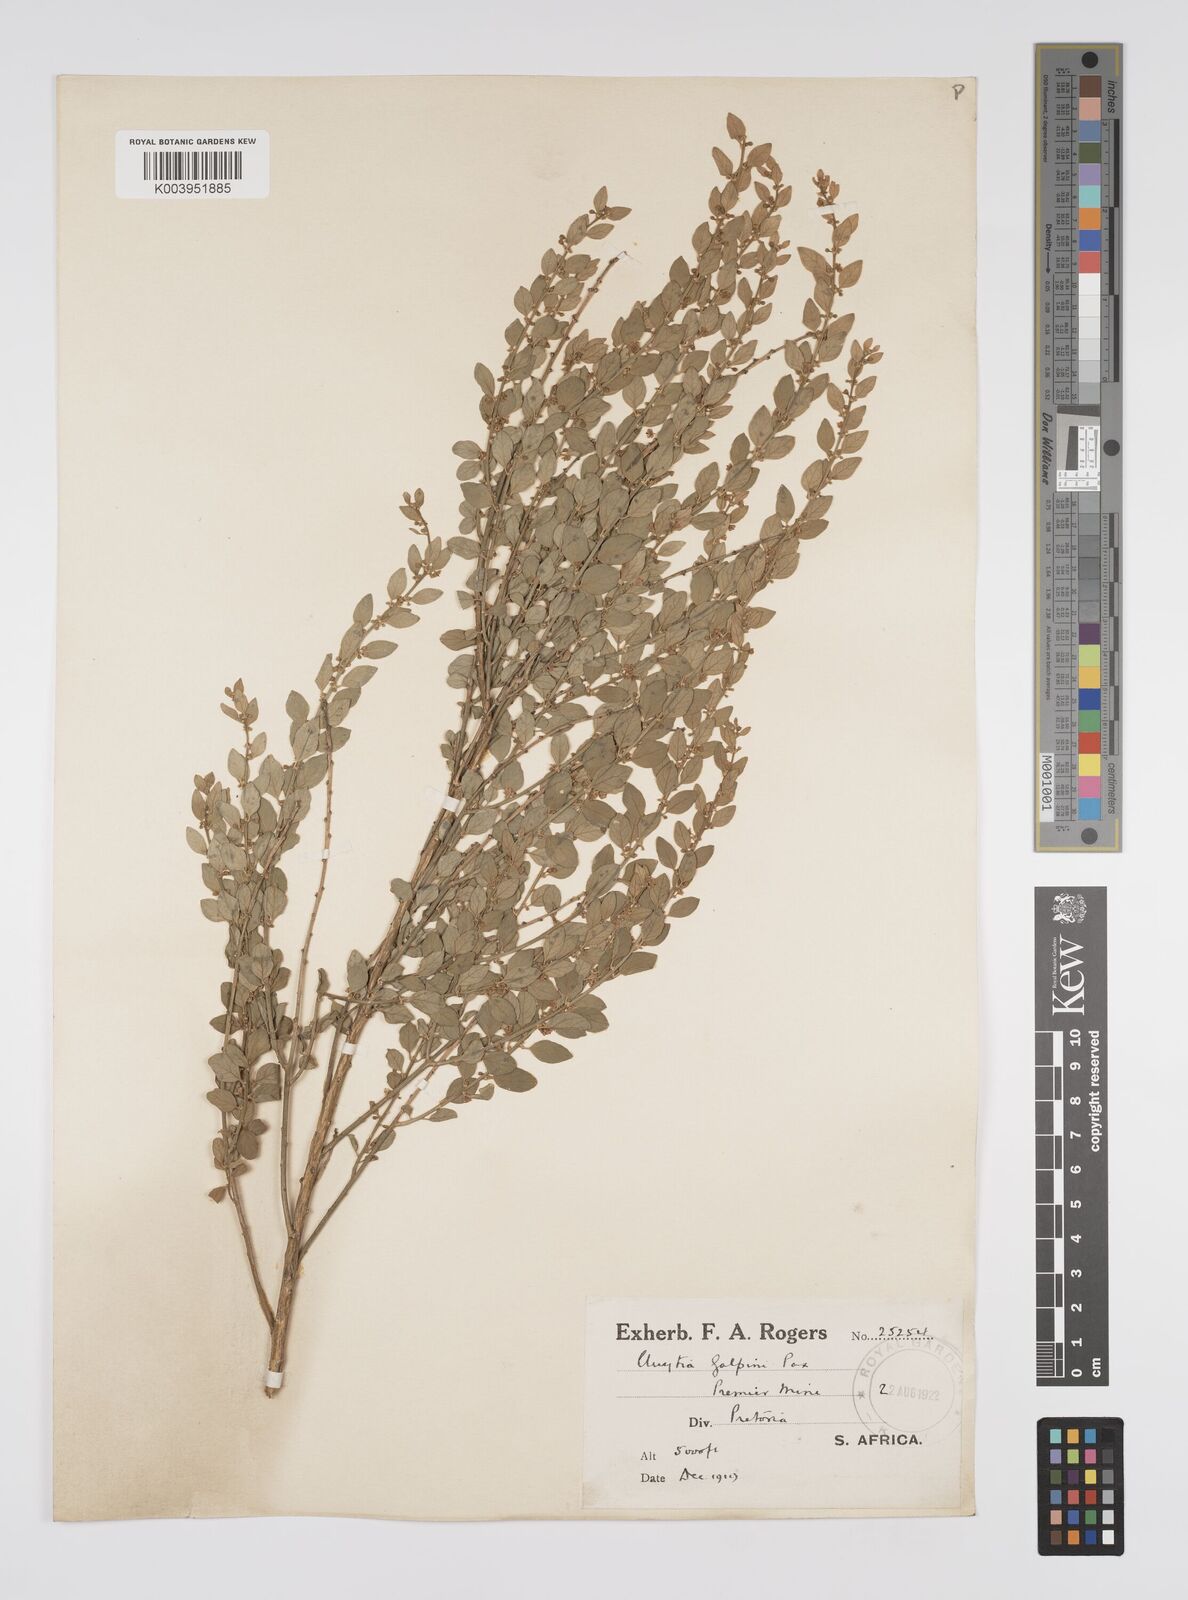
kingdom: Plantae
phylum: Tracheophyta
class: Magnoliopsida
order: Malpighiales
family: Peraceae
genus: Clutia
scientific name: Clutia galpinii
